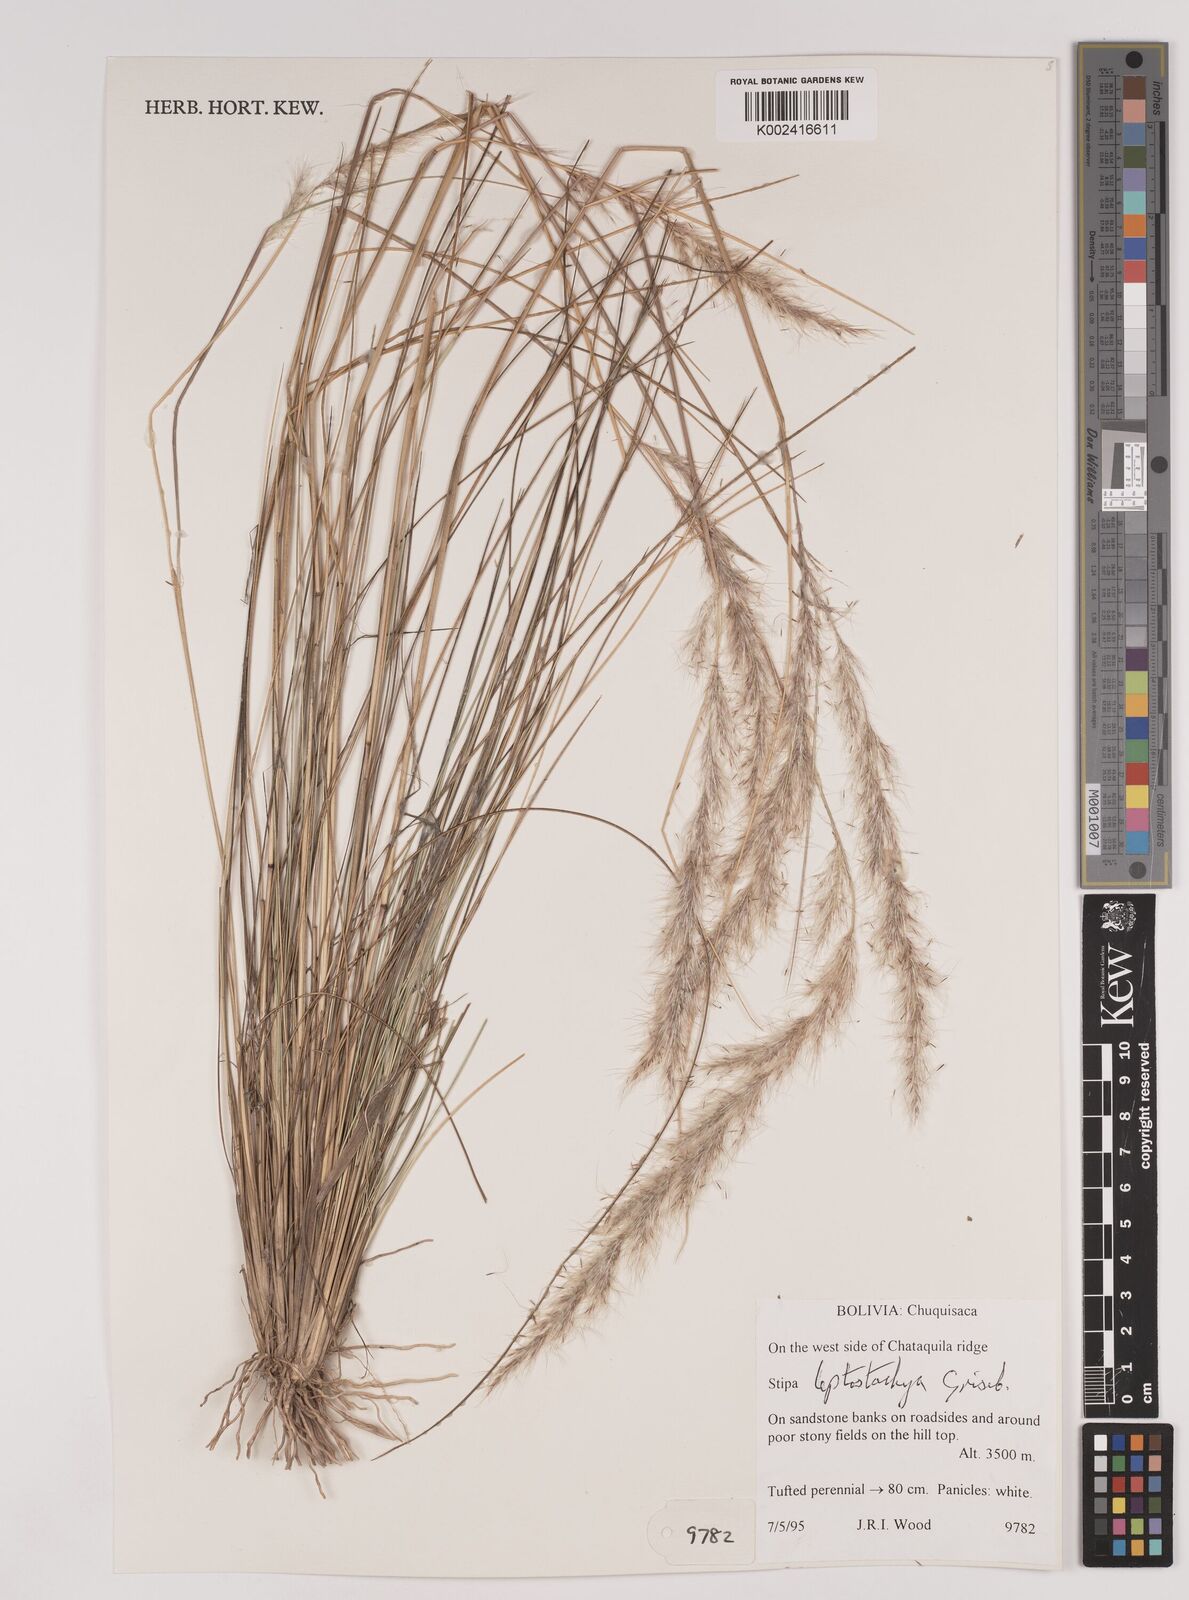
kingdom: Plantae
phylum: Tracheophyta
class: Liliopsida
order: Poales
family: Poaceae
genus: Jarava
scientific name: Jarava leptostachya
